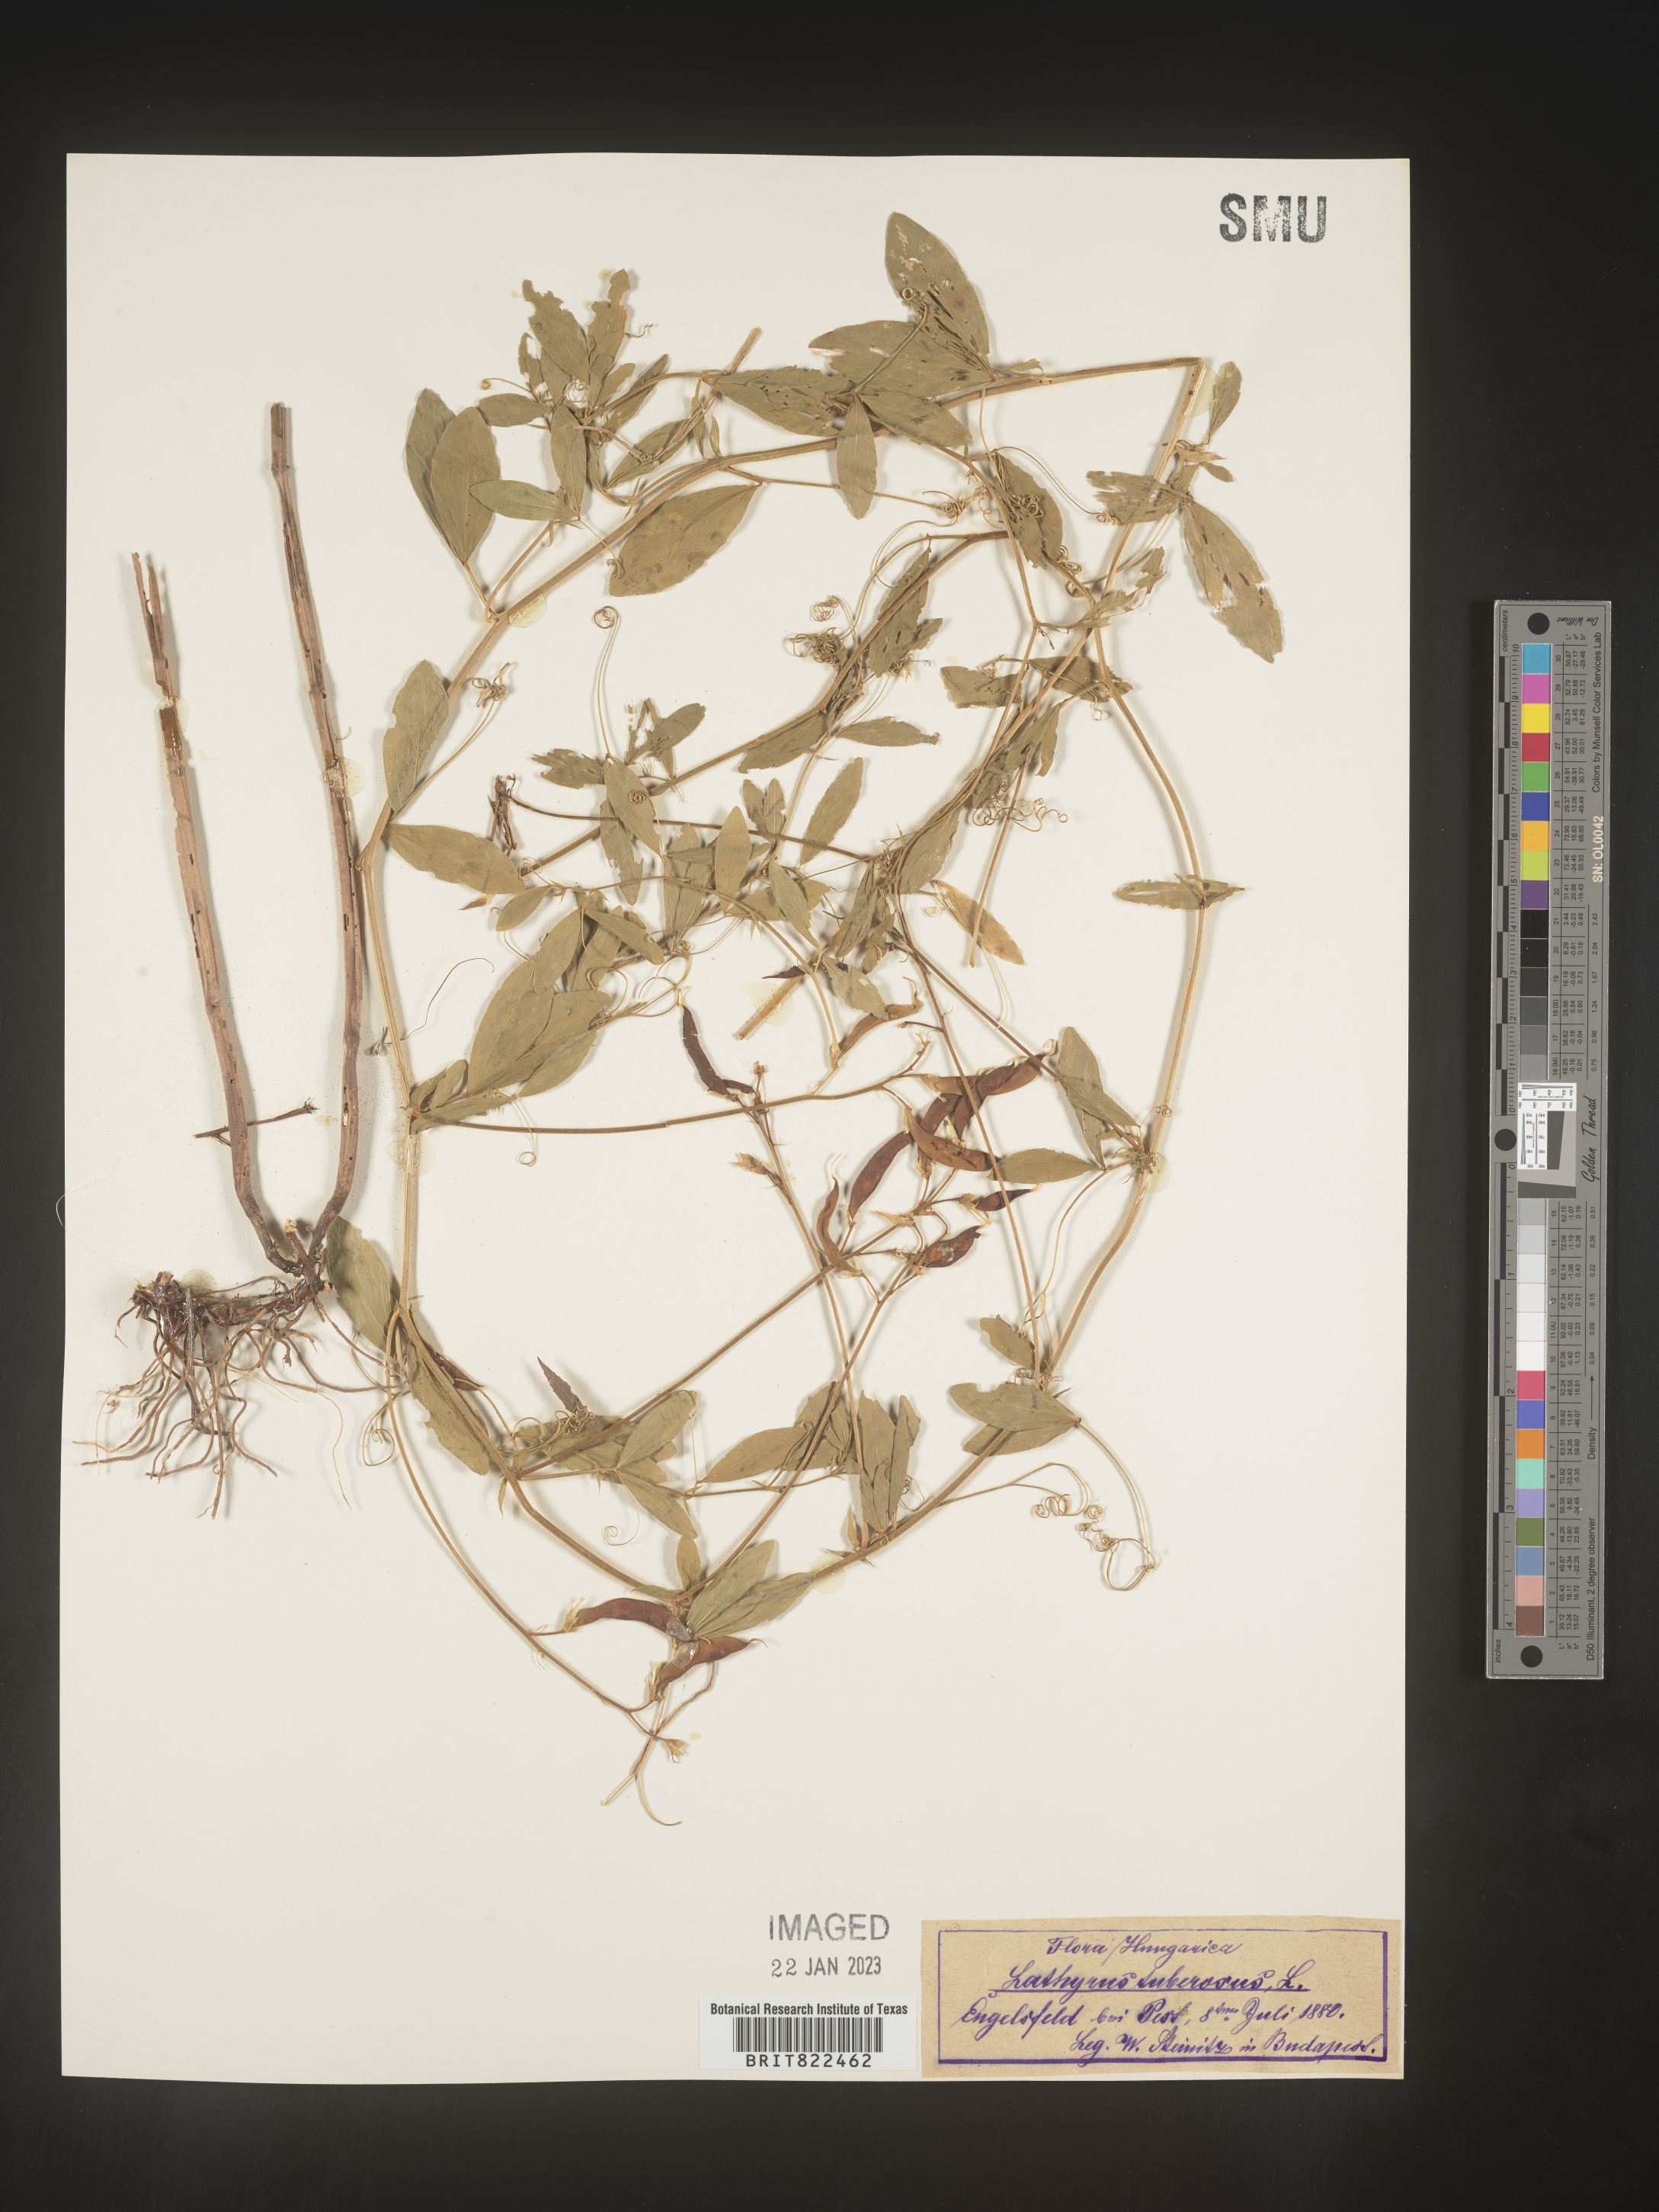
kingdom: Plantae
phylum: Tracheophyta
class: Magnoliopsida
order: Fabales
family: Fabaceae
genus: Lathyrus
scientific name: Lathyrus
